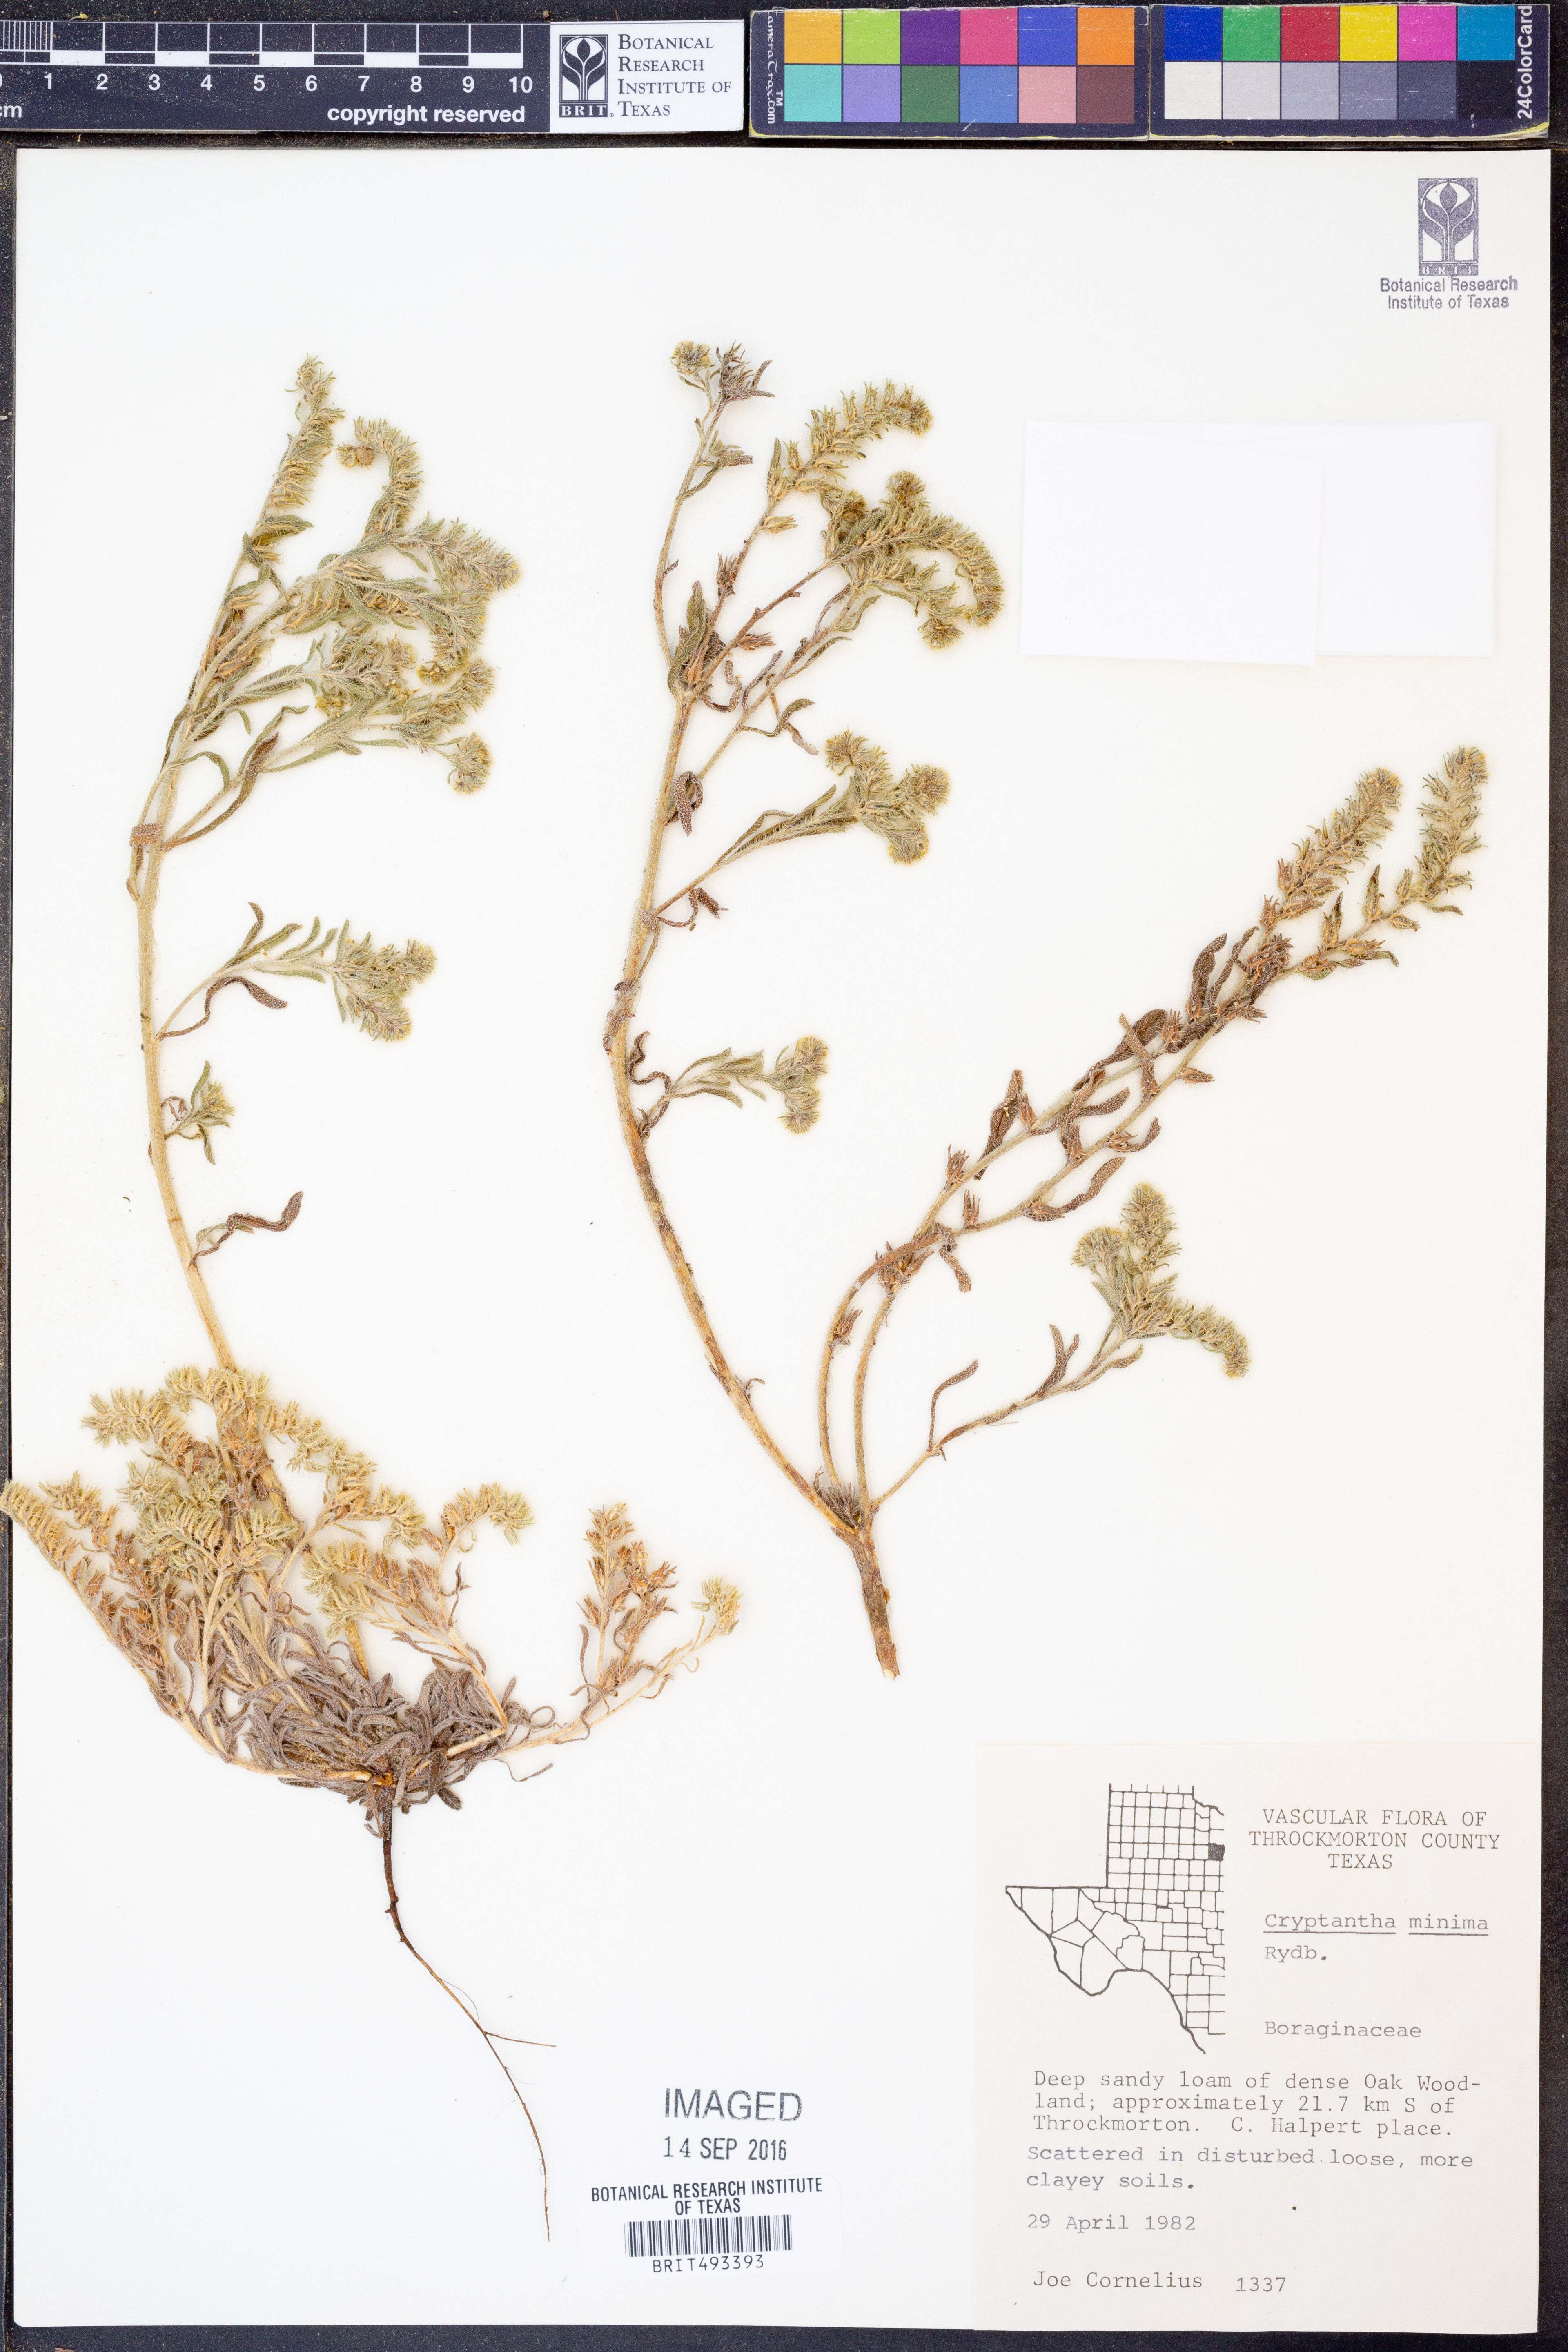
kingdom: Plantae
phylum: Tracheophyta
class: Magnoliopsida
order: Boraginales
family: Boraginaceae
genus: Cryptantha
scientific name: Cryptantha minima
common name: Little cat's-eye
